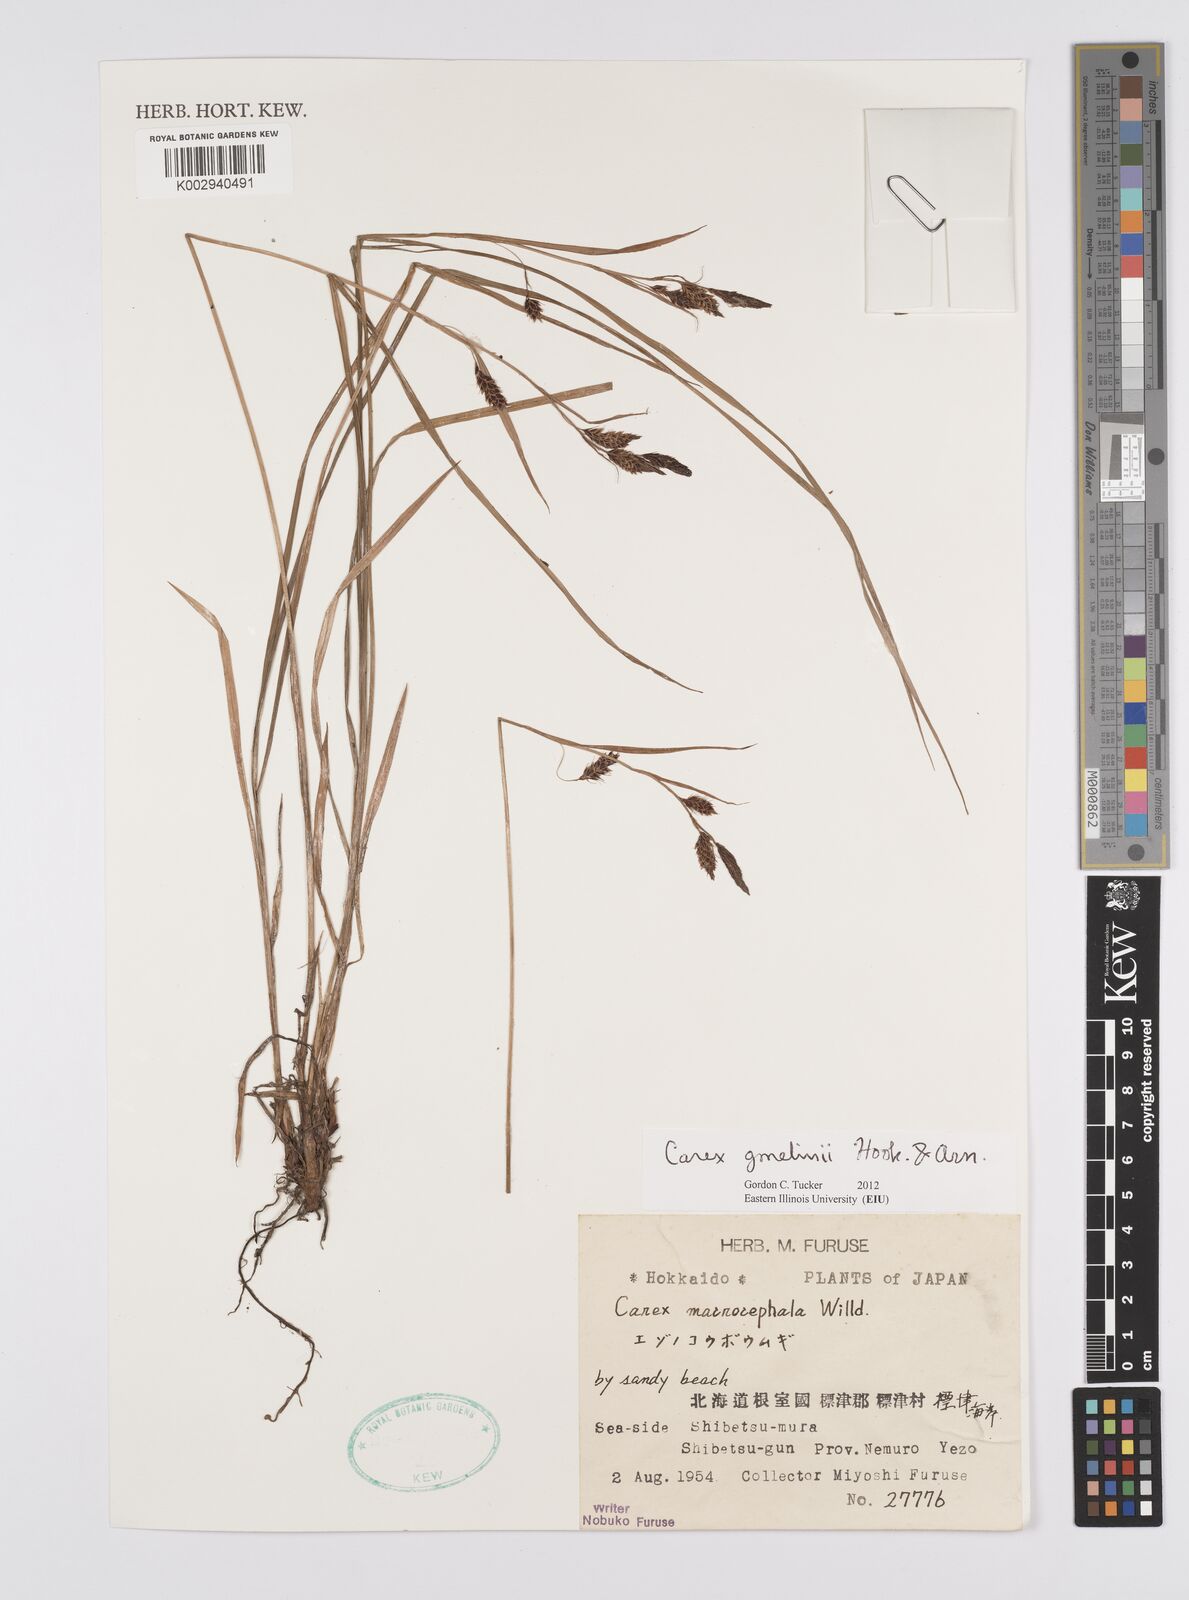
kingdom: Plantae
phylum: Tracheophyta
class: Liliopsida
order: Poales
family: Cyperaceae
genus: Carex
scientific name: Carex gmelinii
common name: Gmelin's sedge
